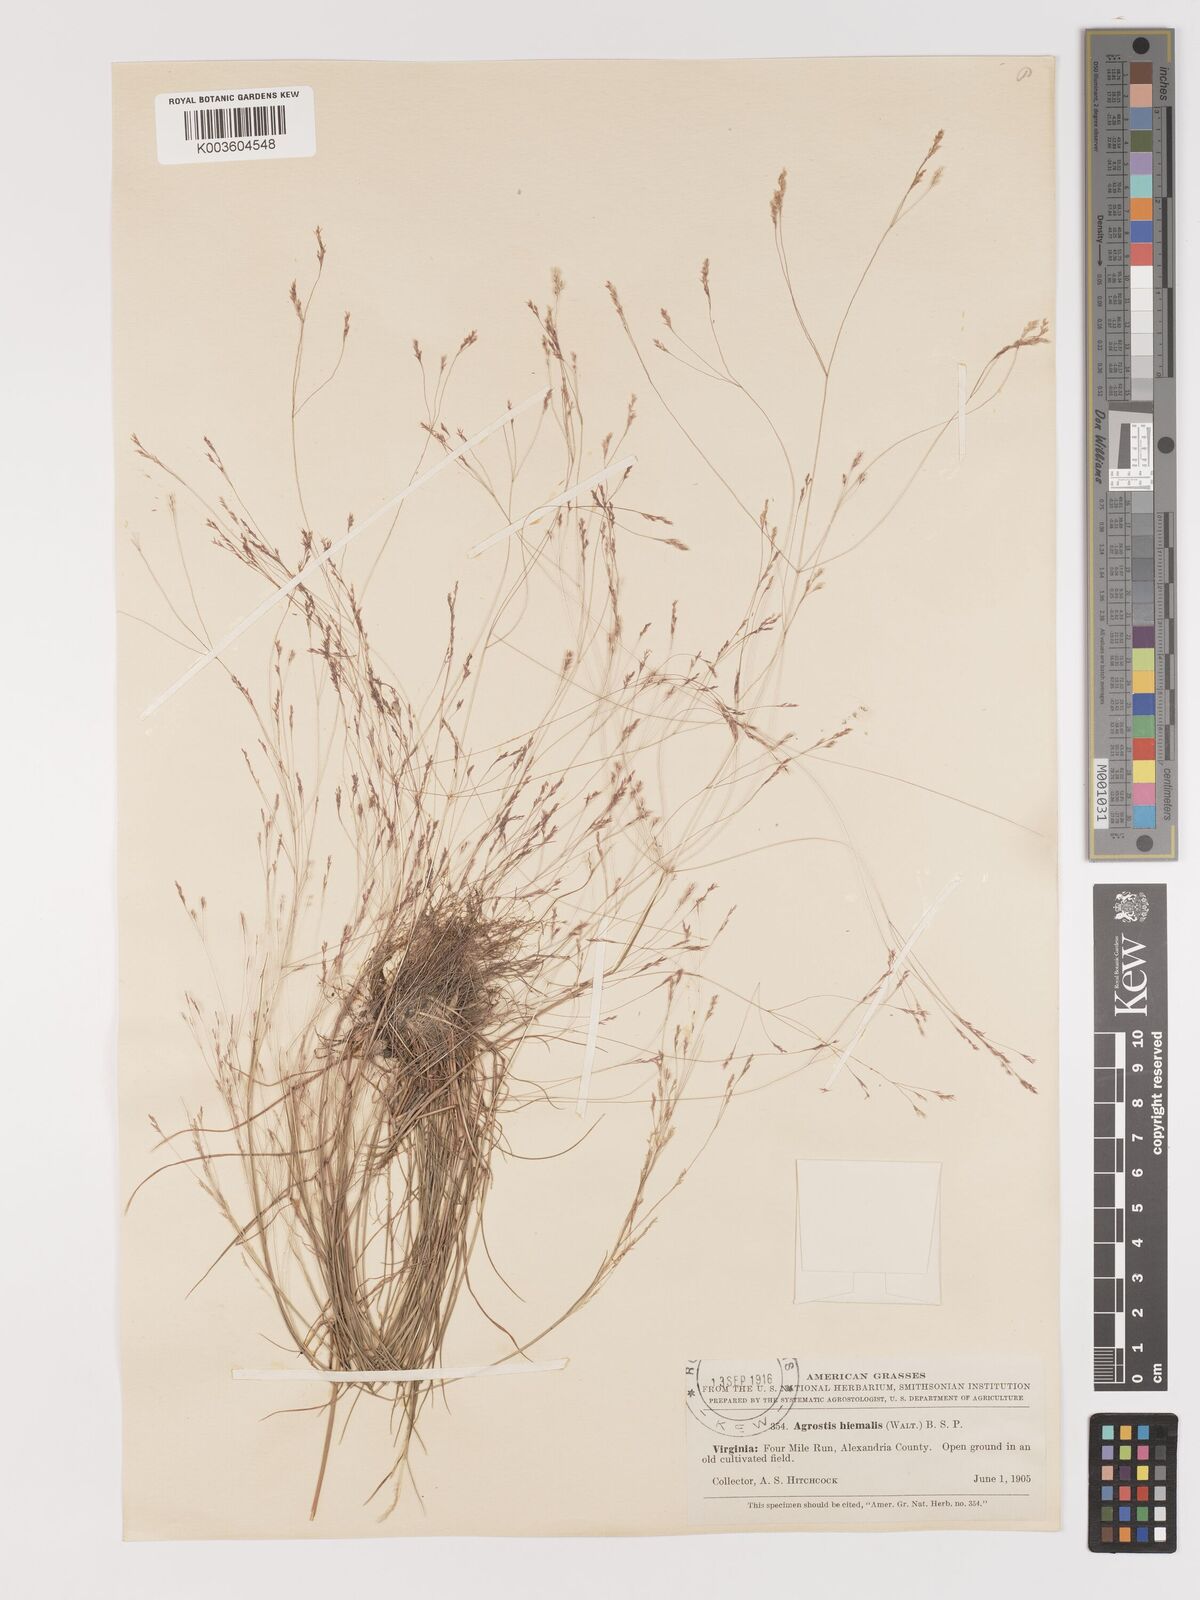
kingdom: Plantae
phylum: Tracheophyta
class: Liliopsida
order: Poales
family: Poaceae
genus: Agrostis
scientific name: Agrostis hyemalis
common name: Small bent
